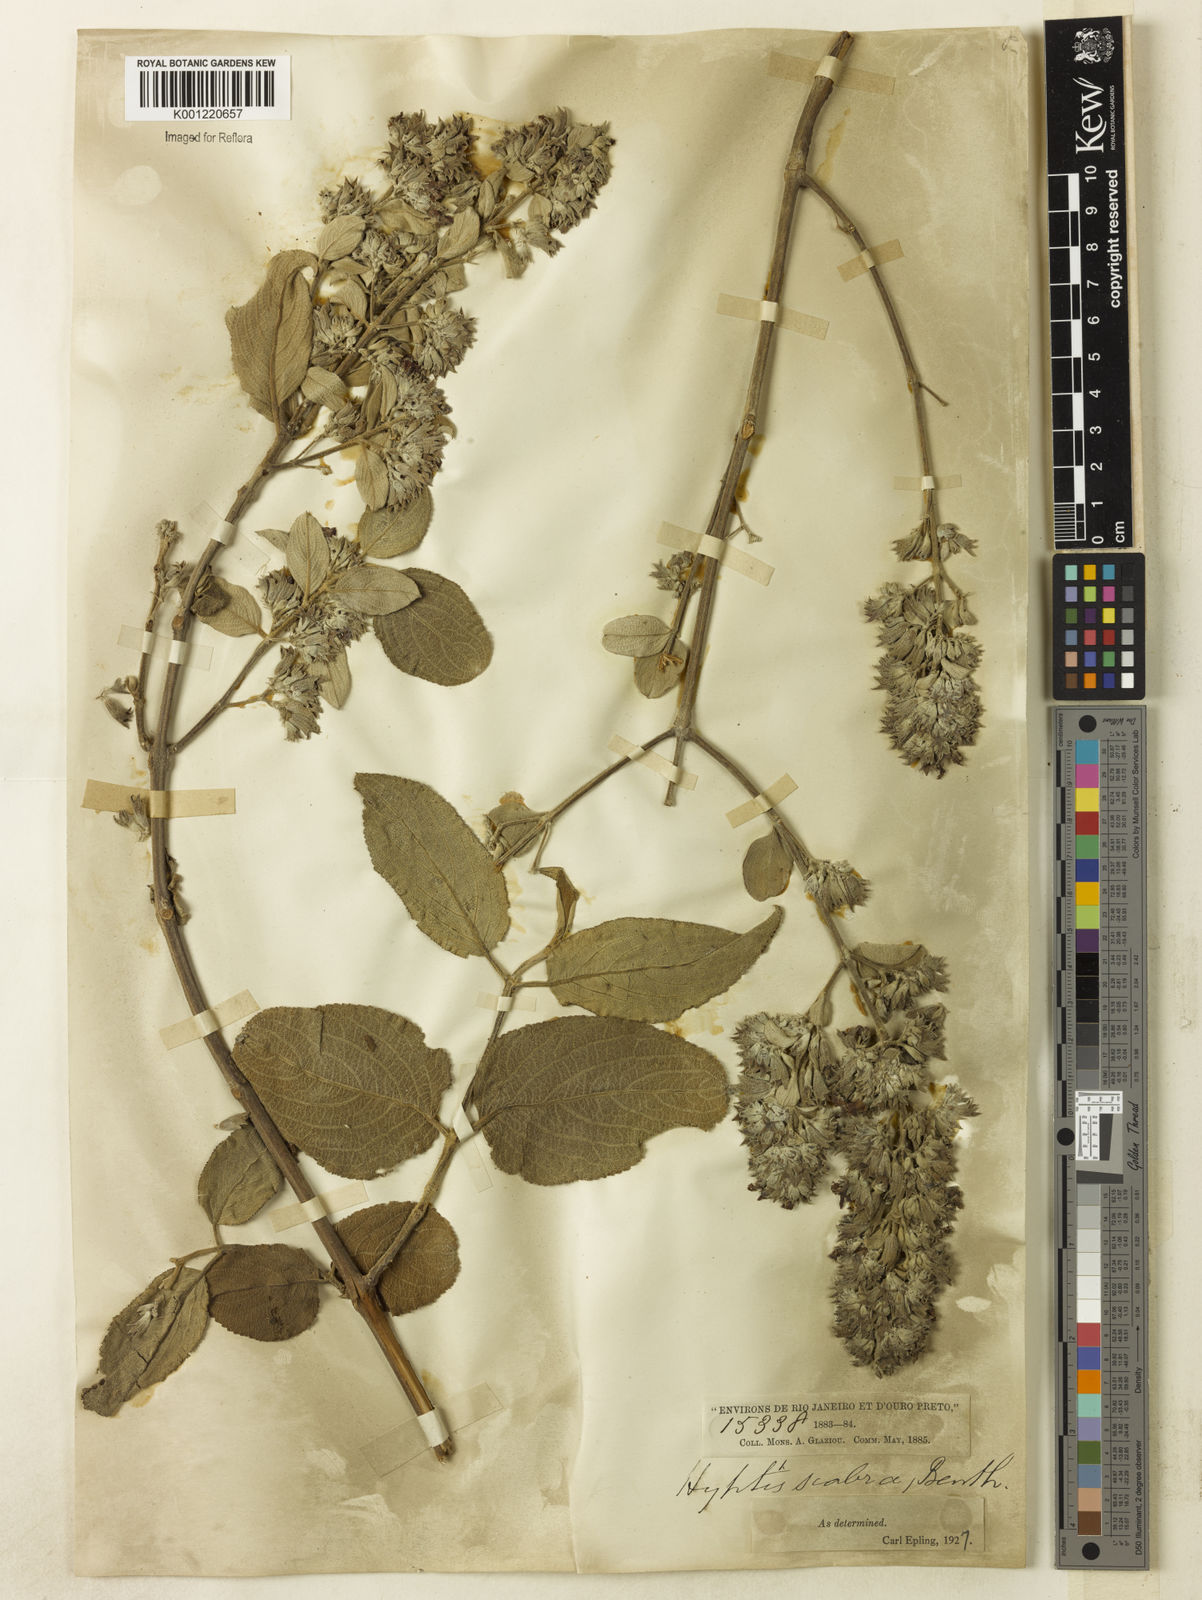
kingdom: Plantae
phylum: Tracheophyta
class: Magnoliopsida
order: Lamiales
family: Lamiaceae
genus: Hyptidendron
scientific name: Hyptidendron canum
